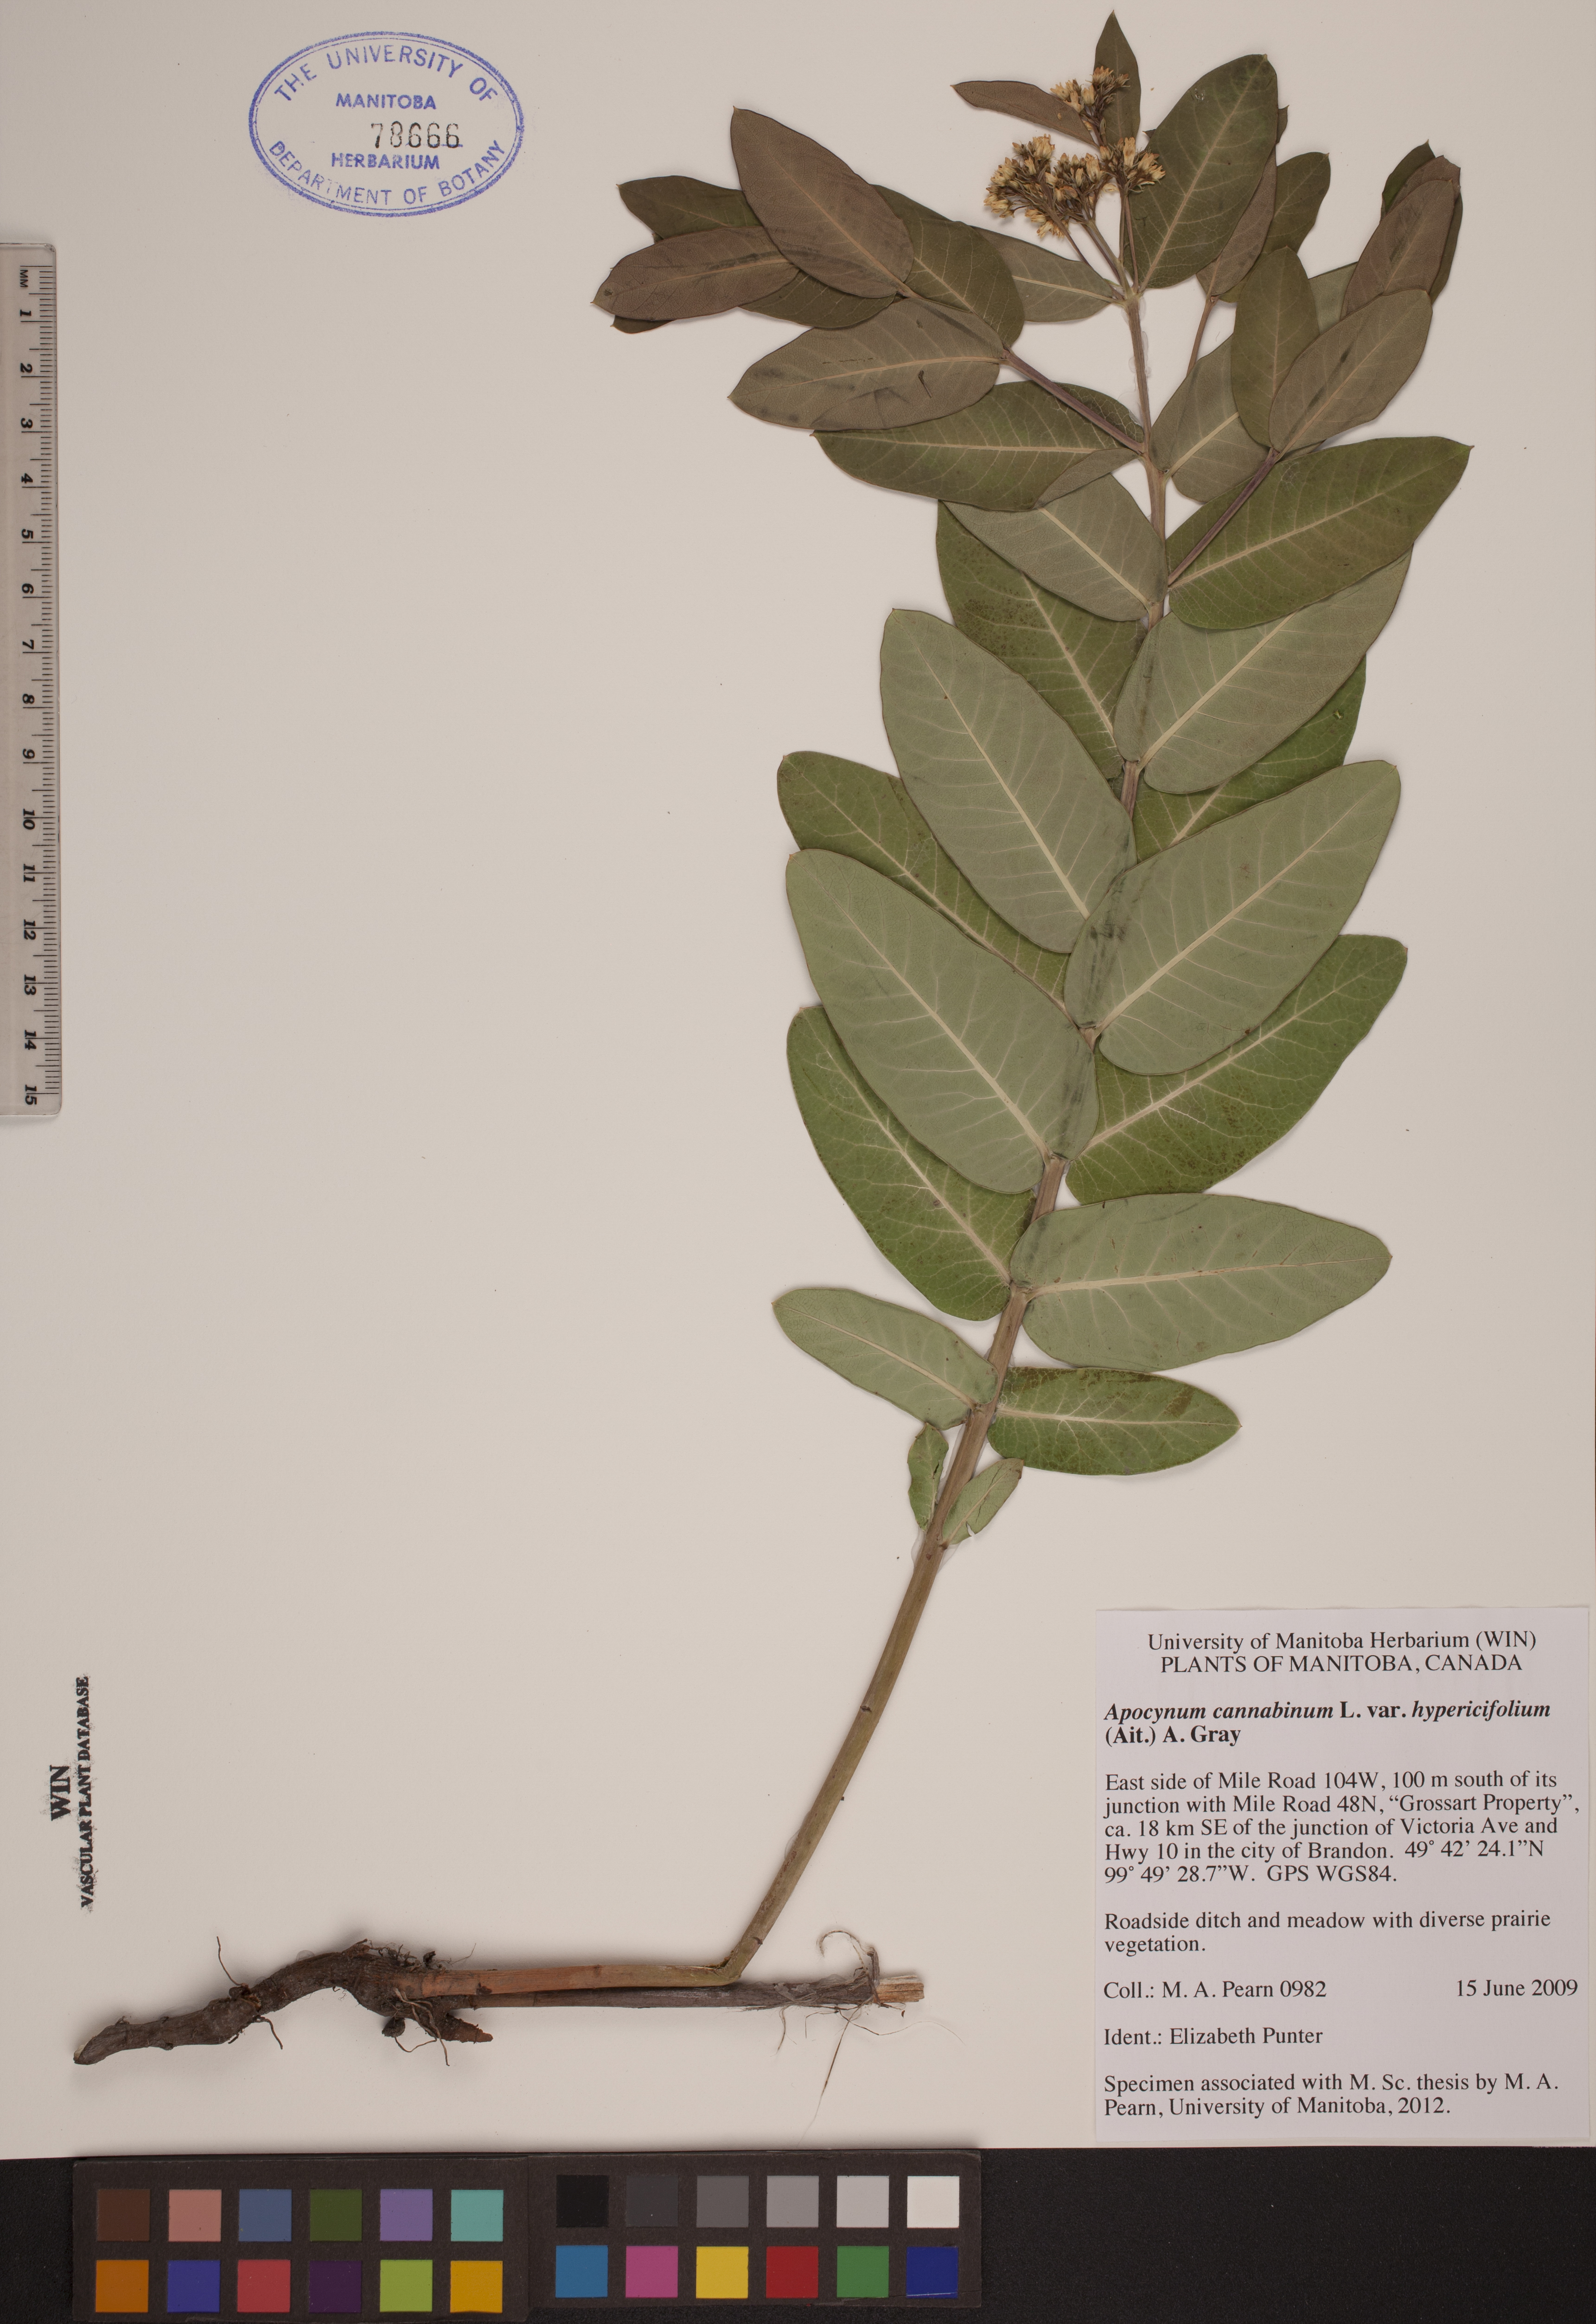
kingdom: Plantae
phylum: Tracheophyta
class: Magnoliopsida
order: Gentianales
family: Apocynaceae
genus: Apocynum
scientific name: Apocynum cannabinum
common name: Hemp dogbane
